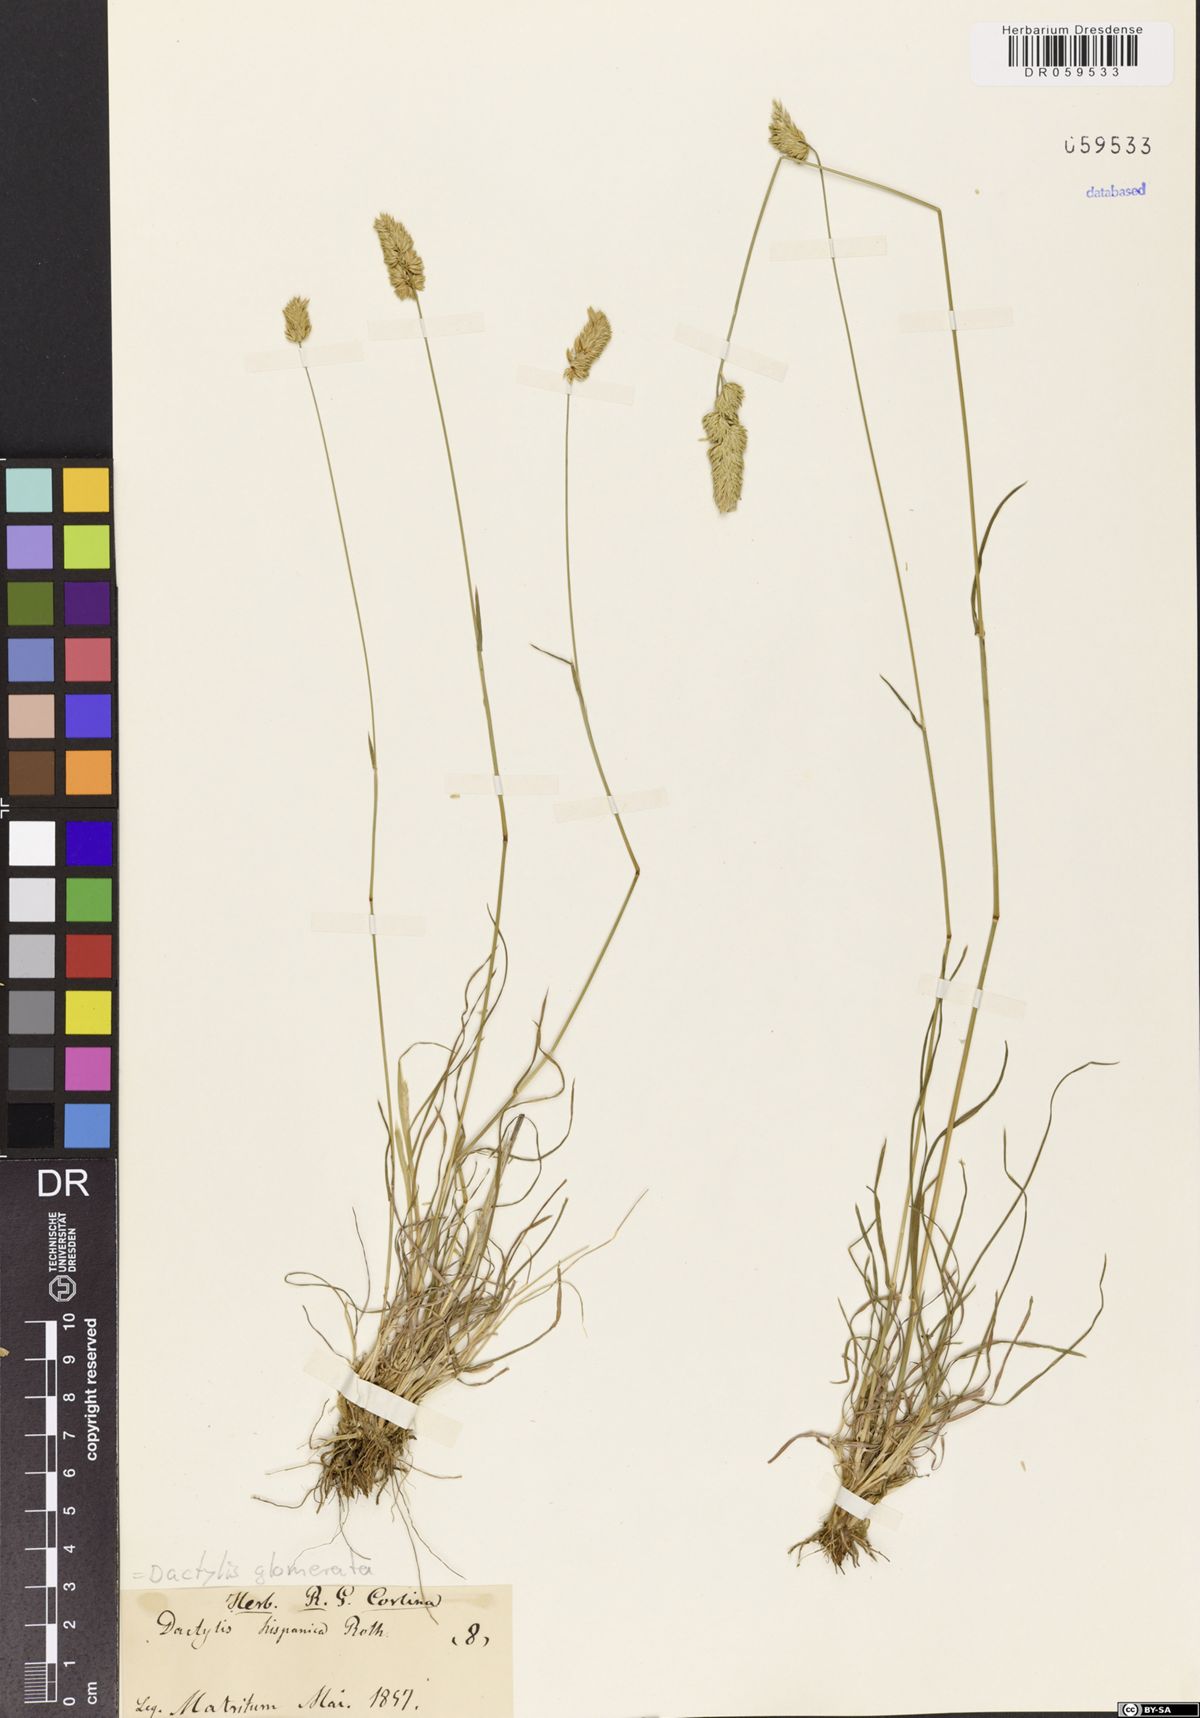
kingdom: Plantae
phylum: Tracheophyta
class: Liliopsida
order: Poales
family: Poaceae
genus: Dactylis
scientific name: Dactylis glomerata
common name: Orchardgrass
